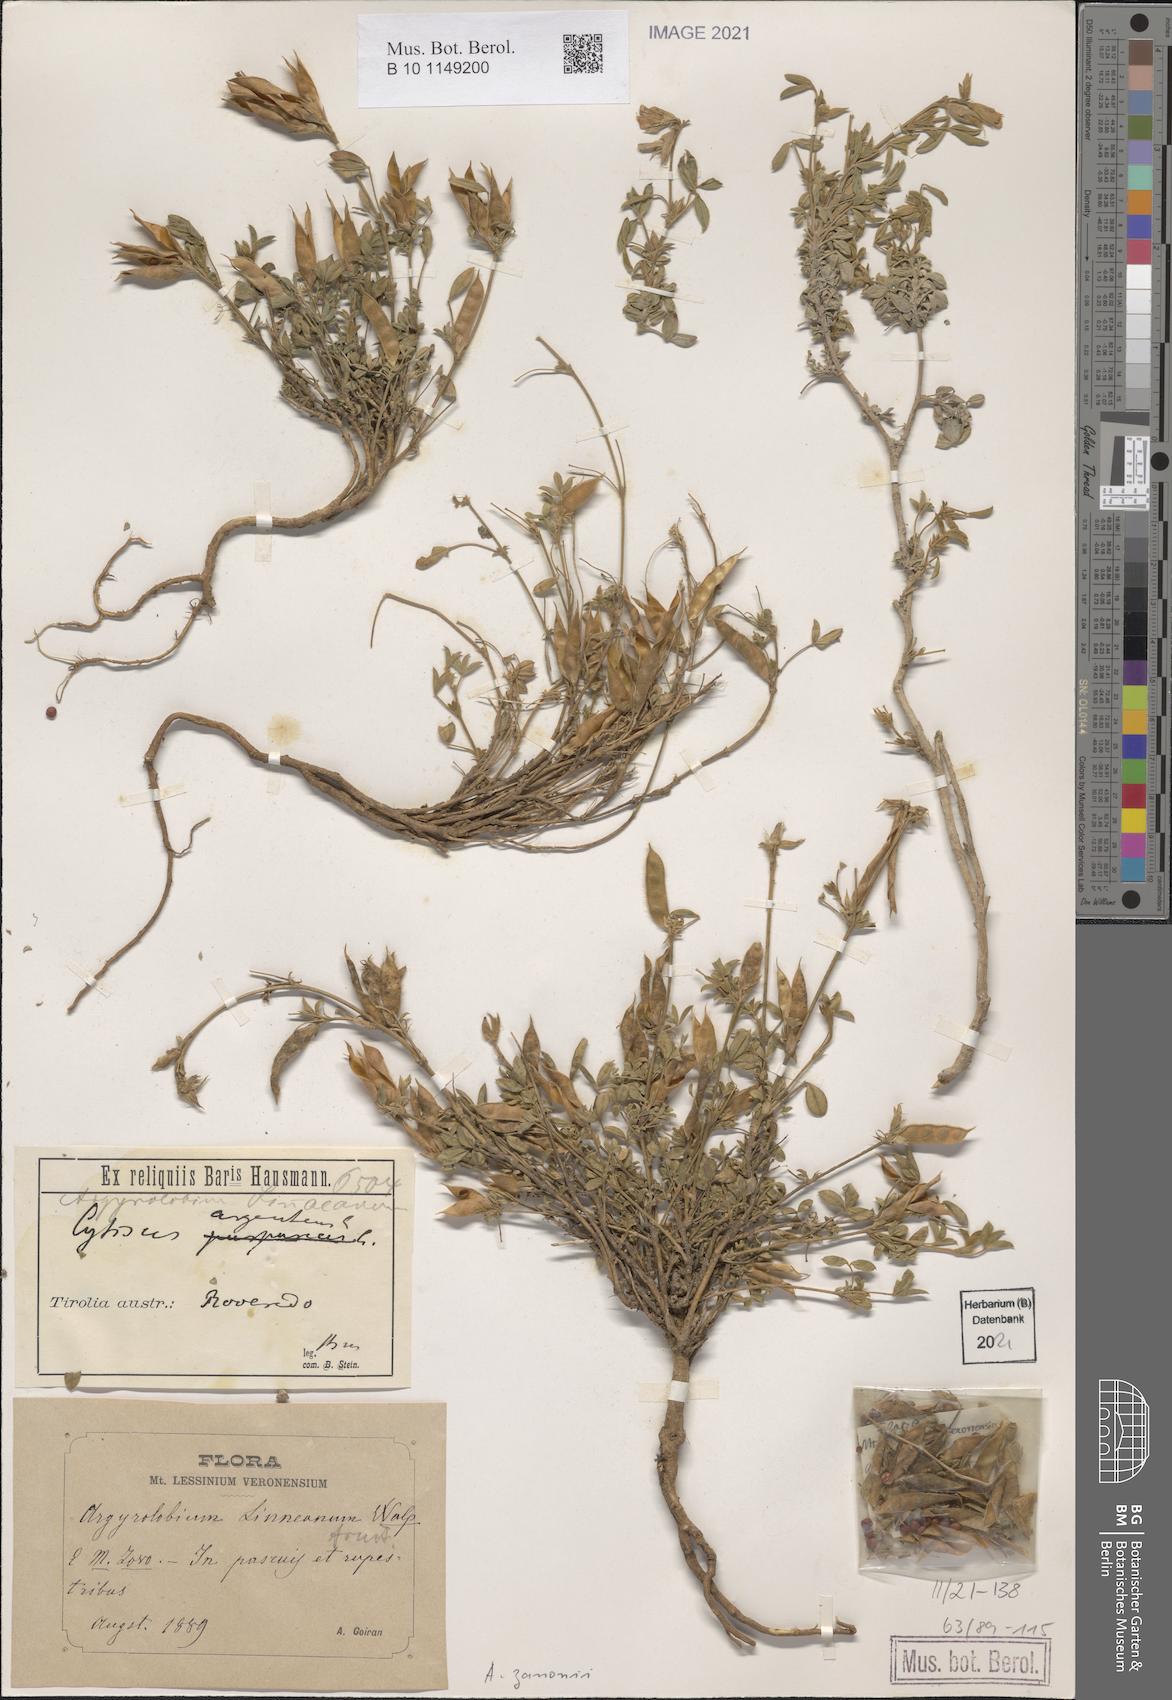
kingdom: Plantae
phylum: Tracheophyta
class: Magnoliopsida
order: Fabales
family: Fabaceae
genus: Argyrolobium
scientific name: Argyrolobium zanonii
